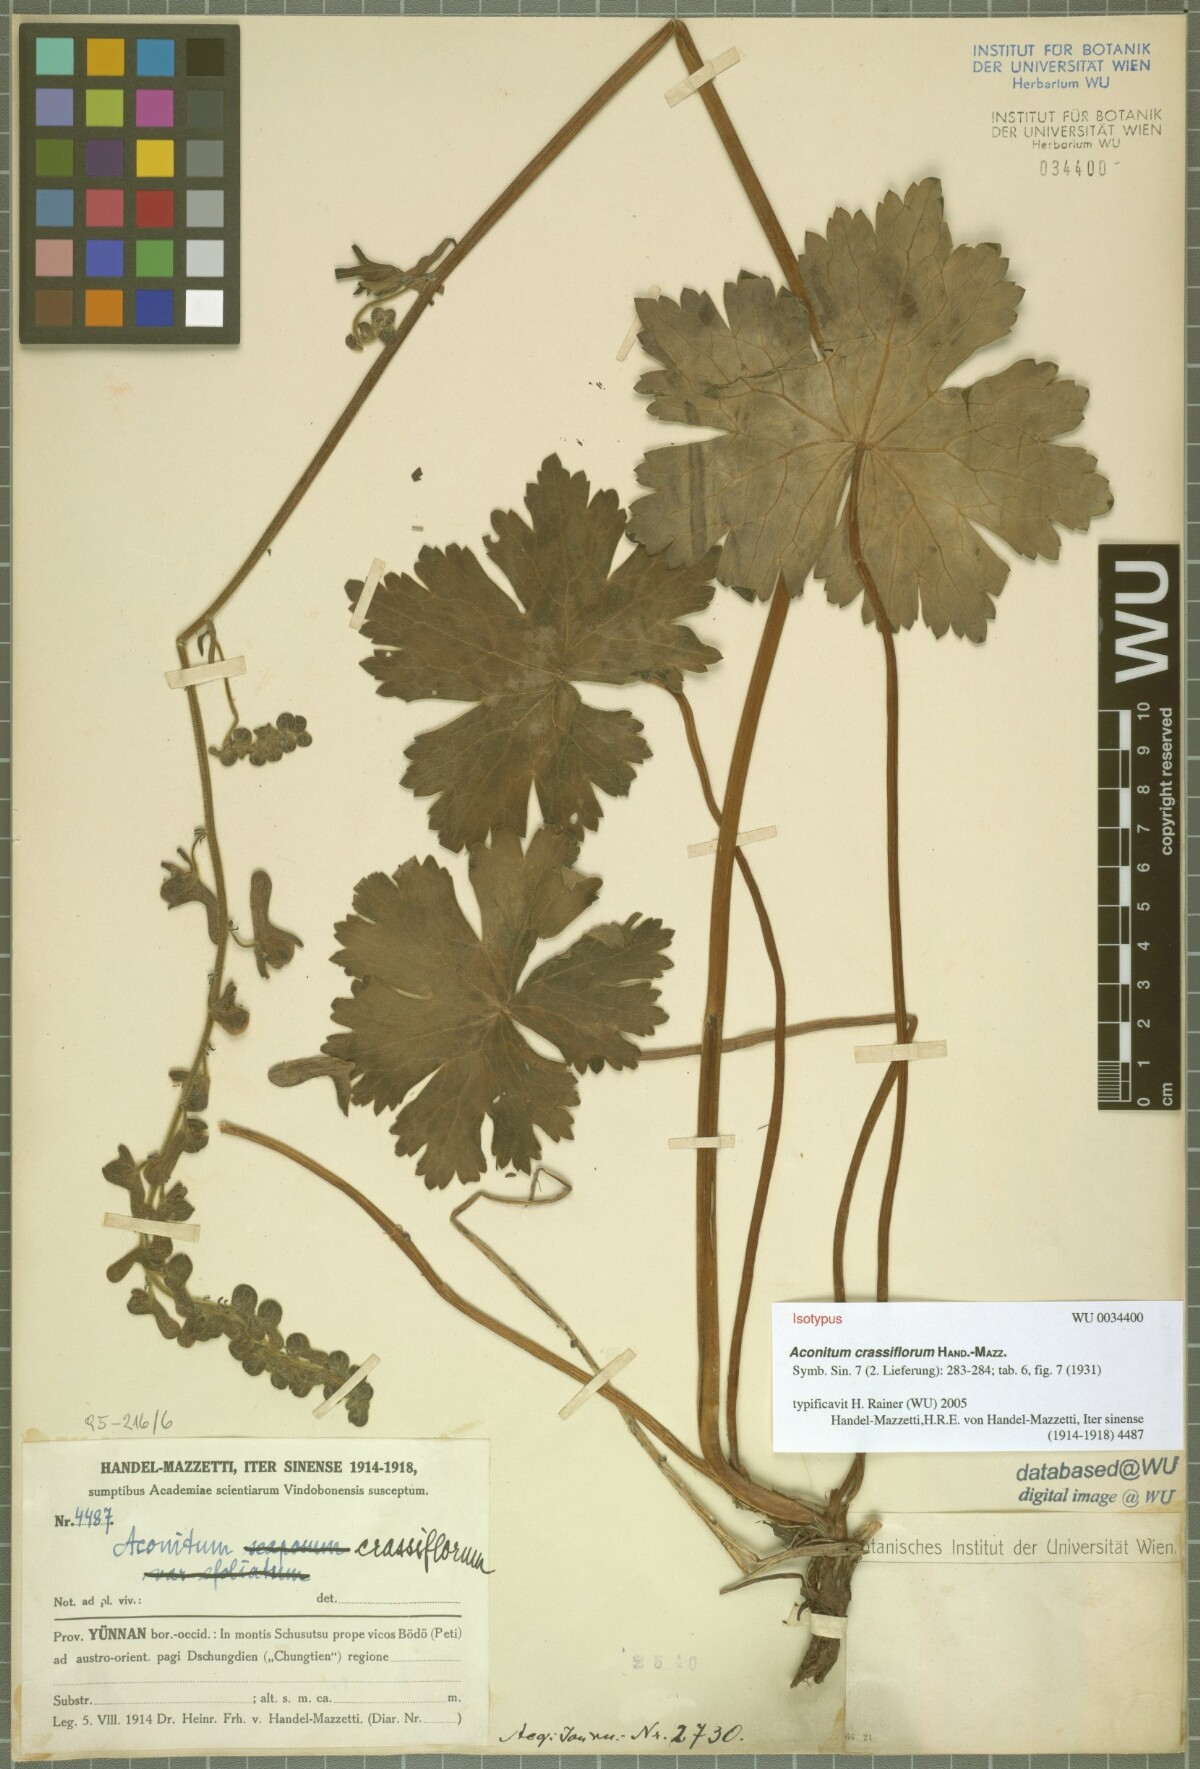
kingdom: Plantae
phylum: Tracheophyta
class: Magnoliopsida
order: Ranunculales
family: Ranunculaceae
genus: Aconitum
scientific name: Aconitum crassiflorum
